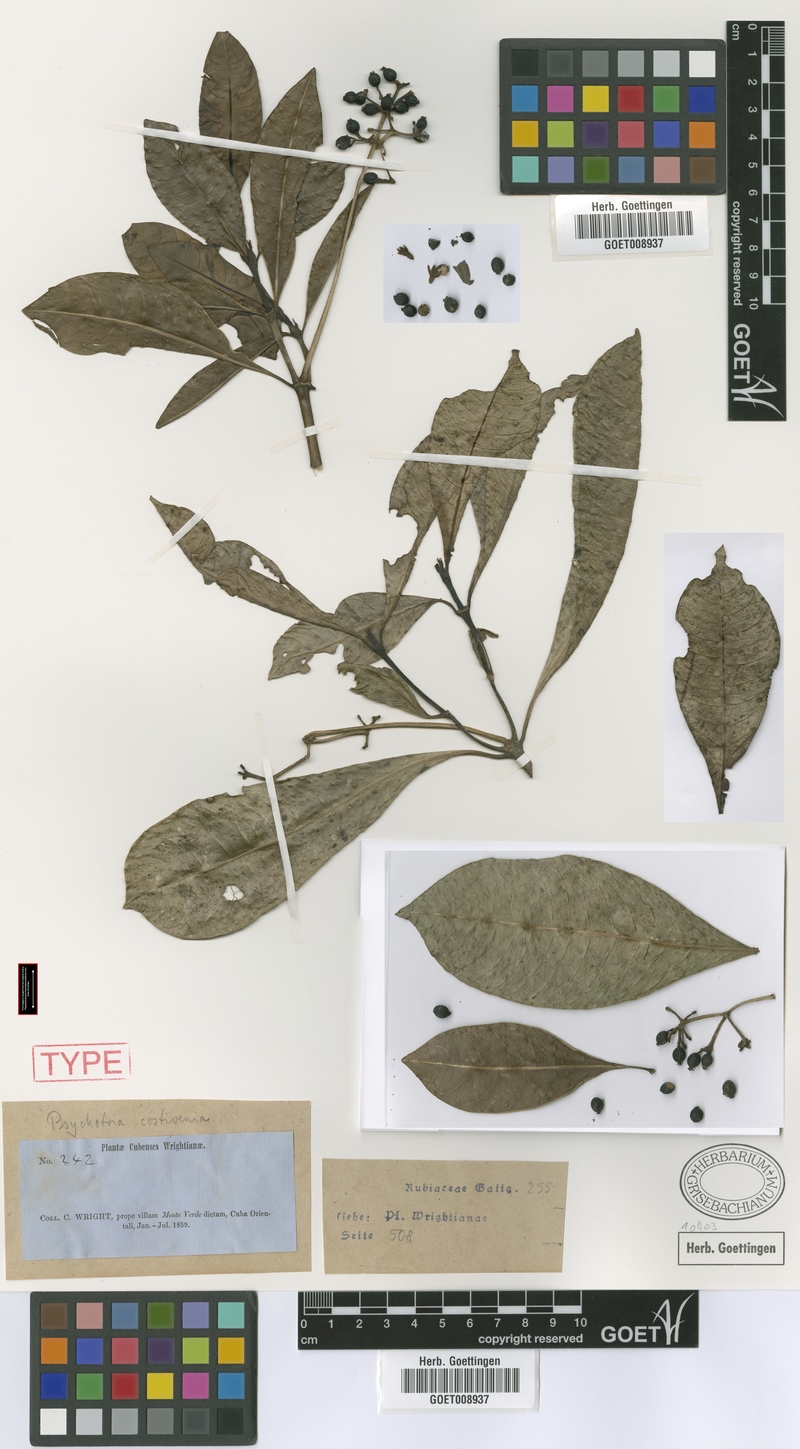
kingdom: Plantae
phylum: Tracheophyta
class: Magnoliopsida
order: Gentianales
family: Rubiaceae
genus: Psychotria
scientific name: Psychotria costivenia
